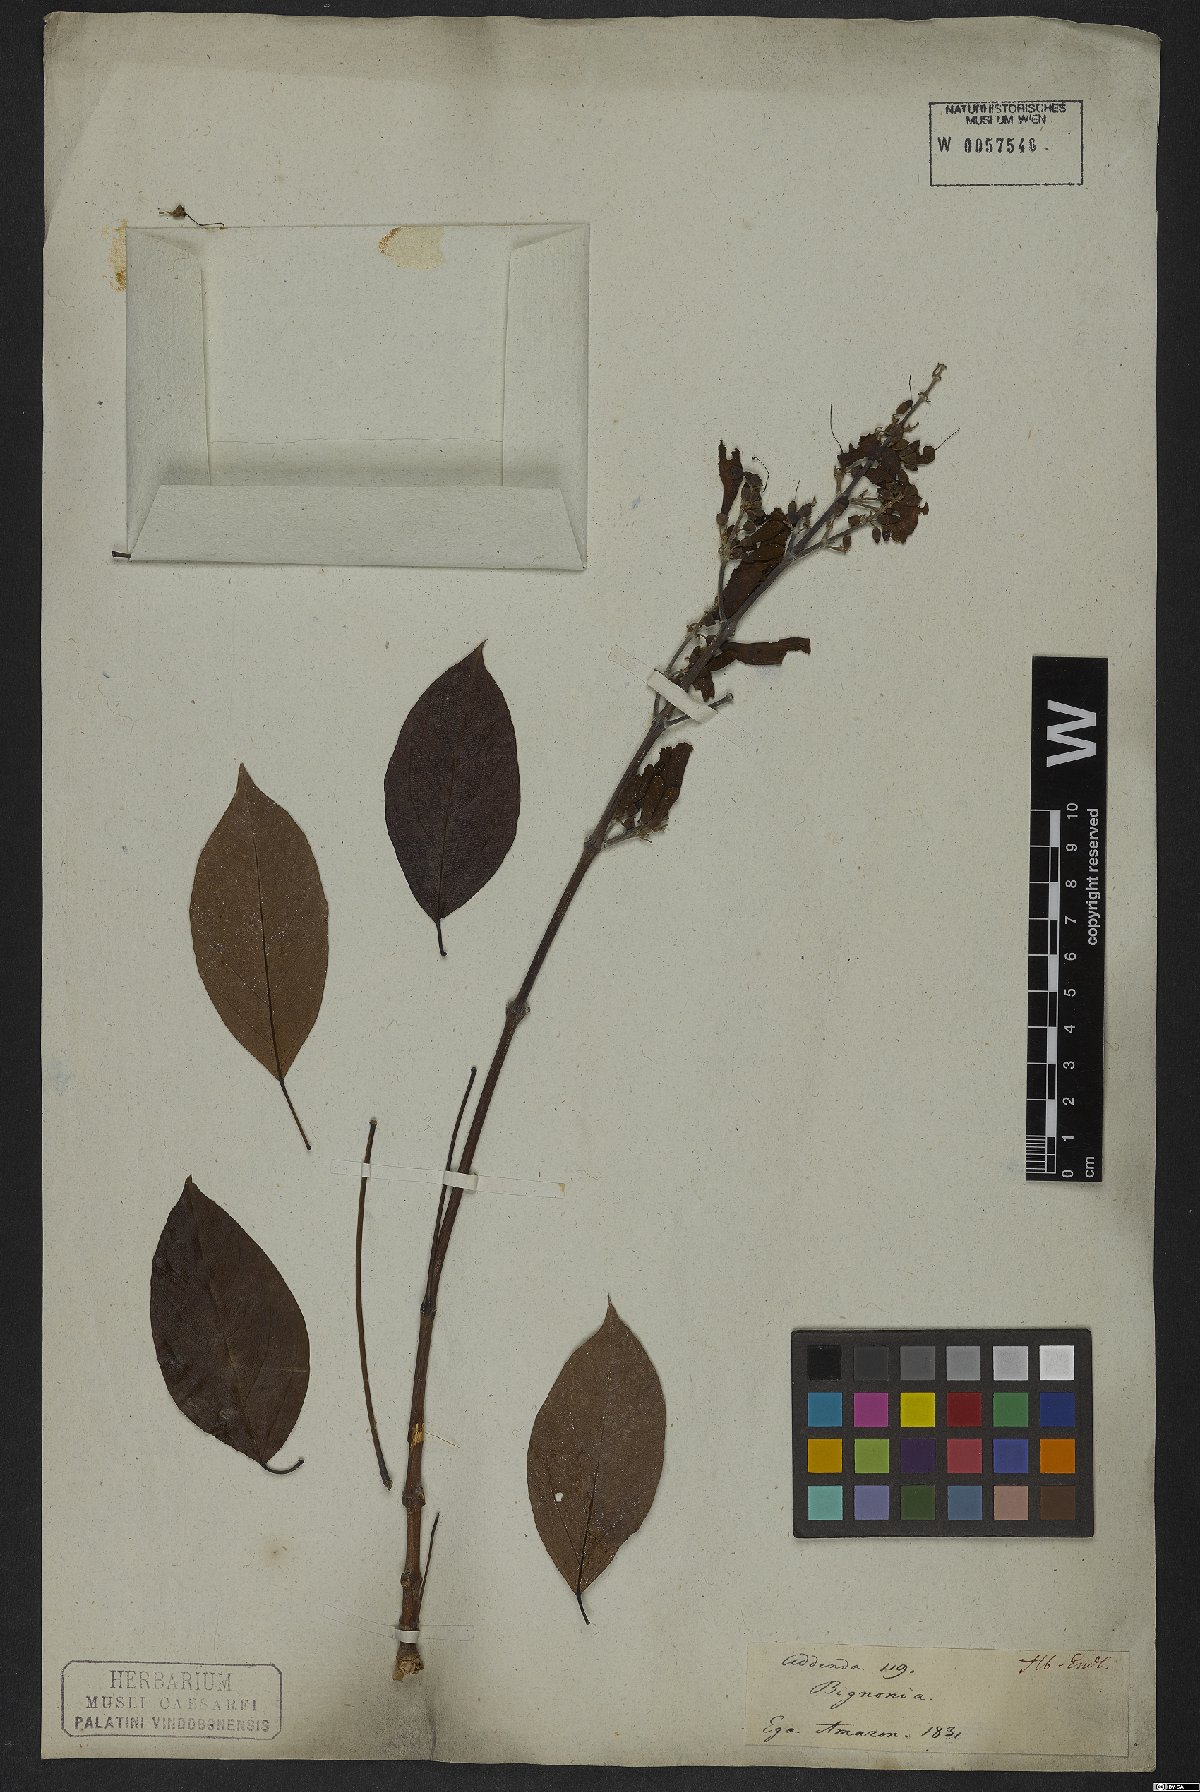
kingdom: Plantae
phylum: Tracheophyta
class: Magnoliopsida
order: Rosales
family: Rhamnaceae
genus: Arrabidaea
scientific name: Arrabidaea
